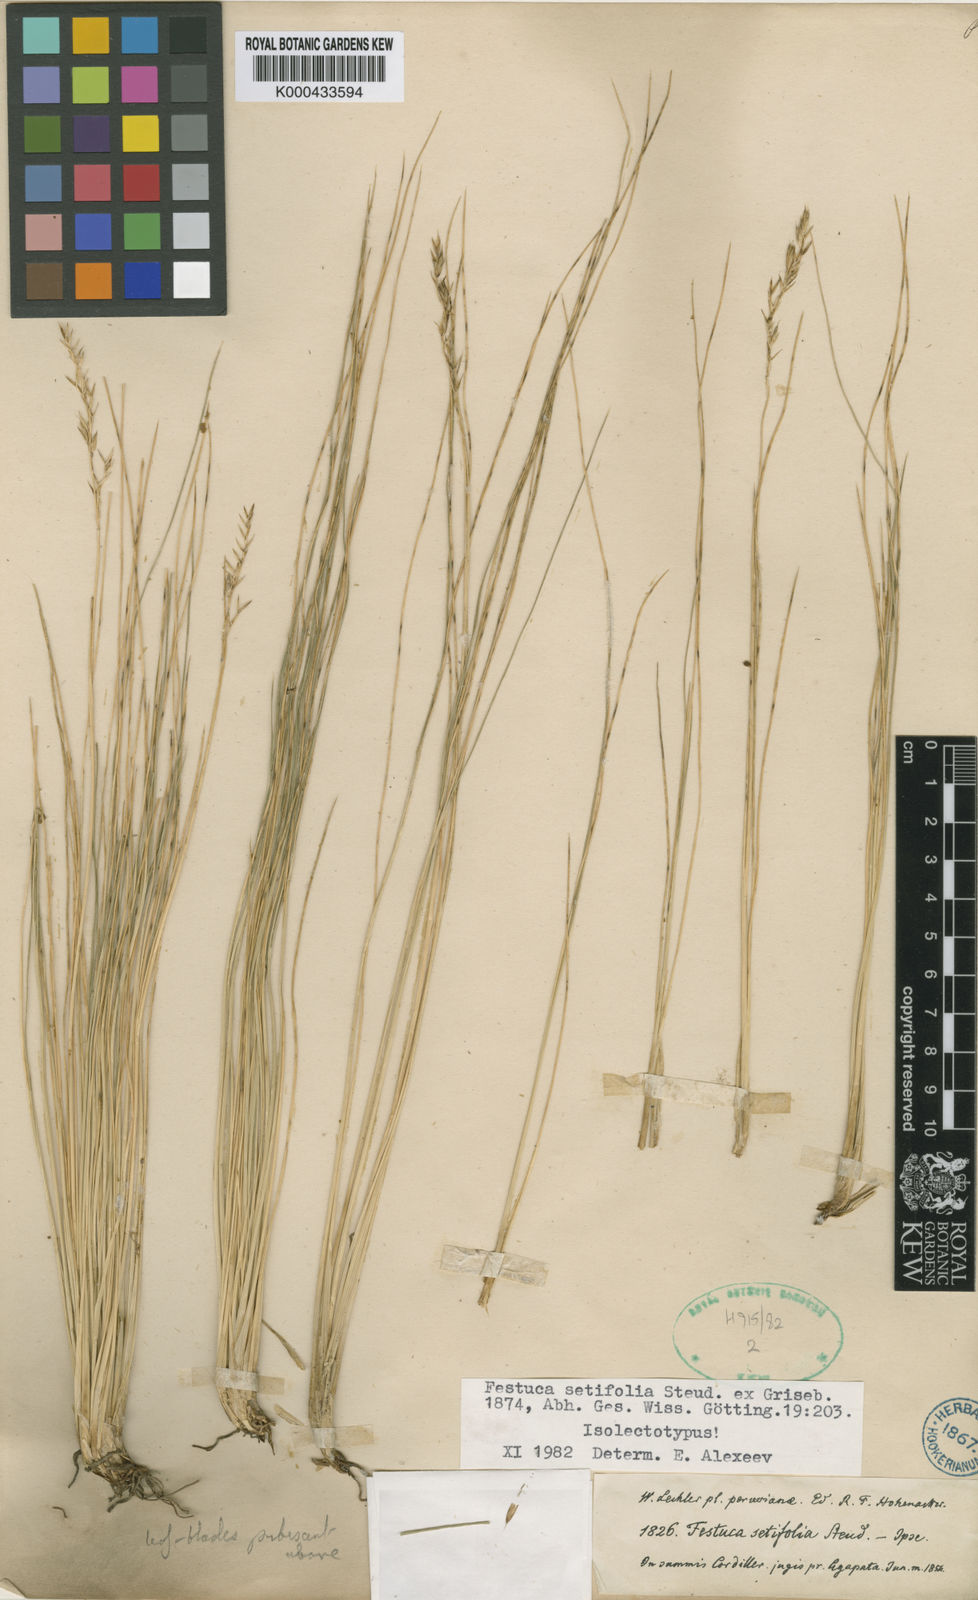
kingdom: Plantae
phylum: Tracheophyta
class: Liliopsida
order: Poales
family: Poaceae
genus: Festuca
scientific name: Festuca setifolia
